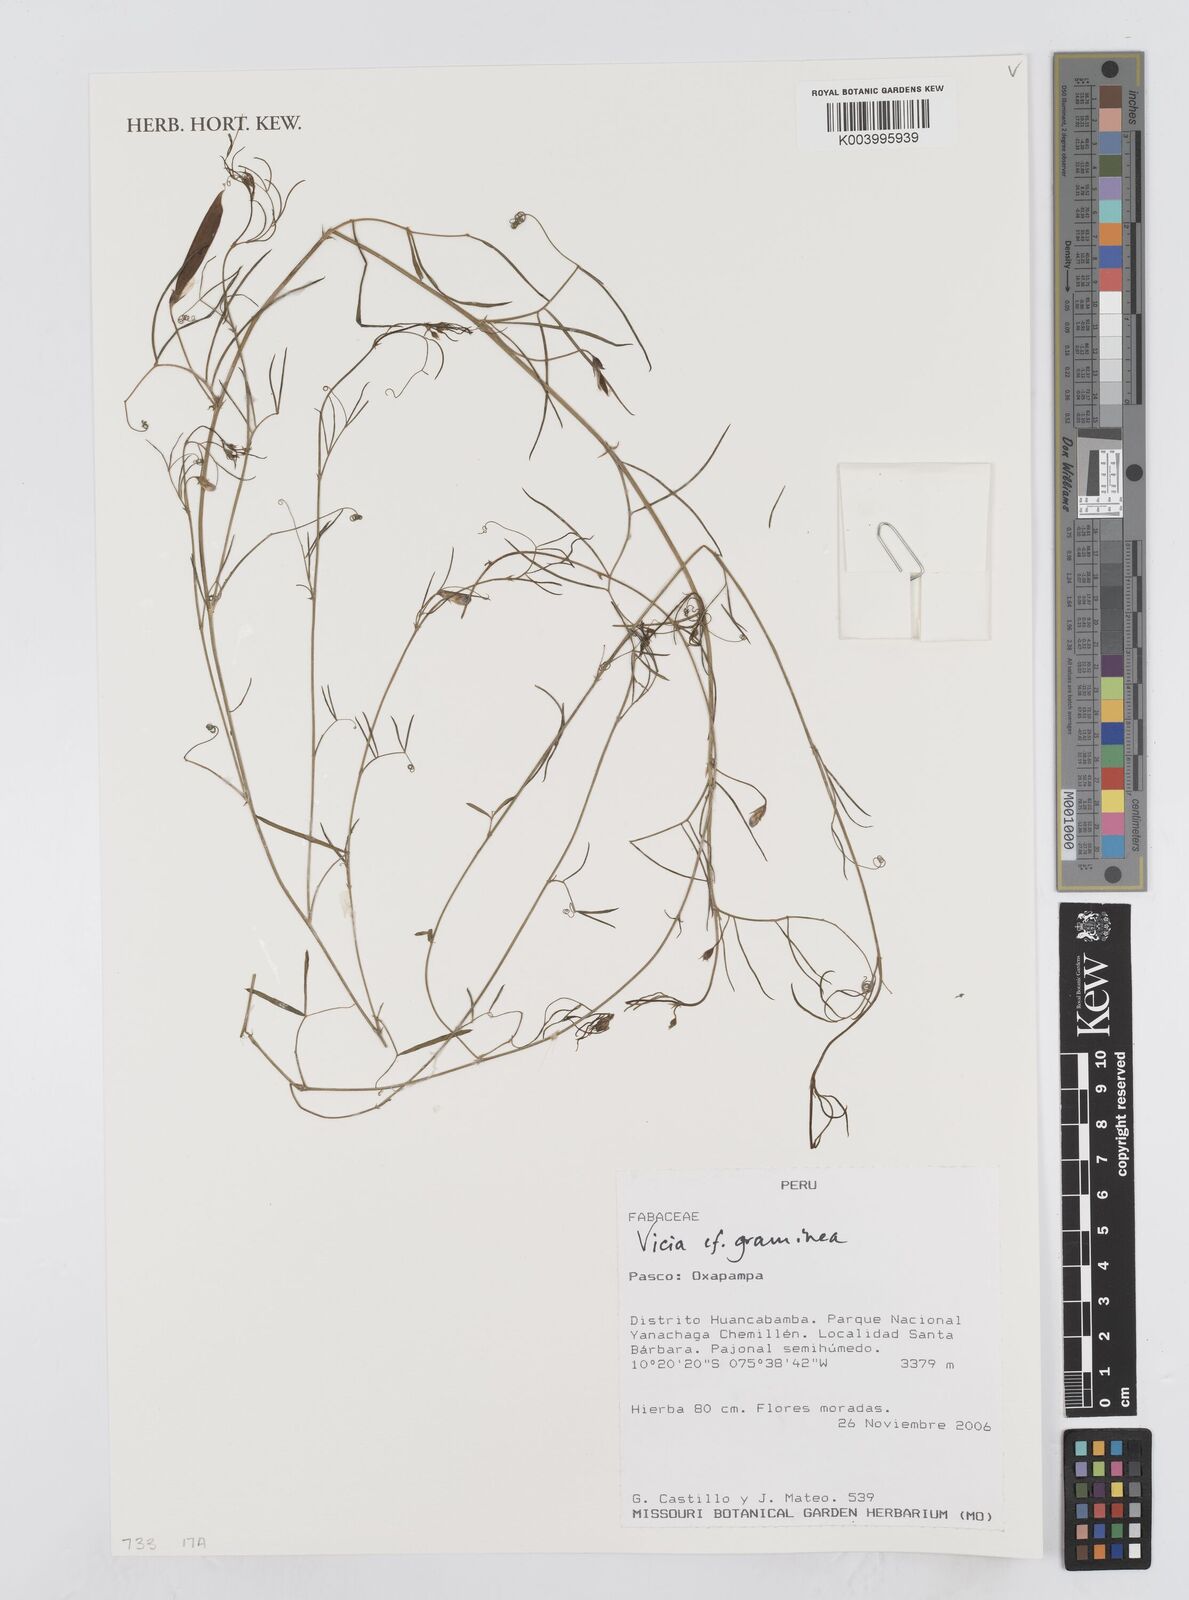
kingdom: Plantae
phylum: Tracheophyta
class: Magnoliopsida
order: Fabales
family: Fabaceae
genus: Vicia
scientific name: Vicia graminea
